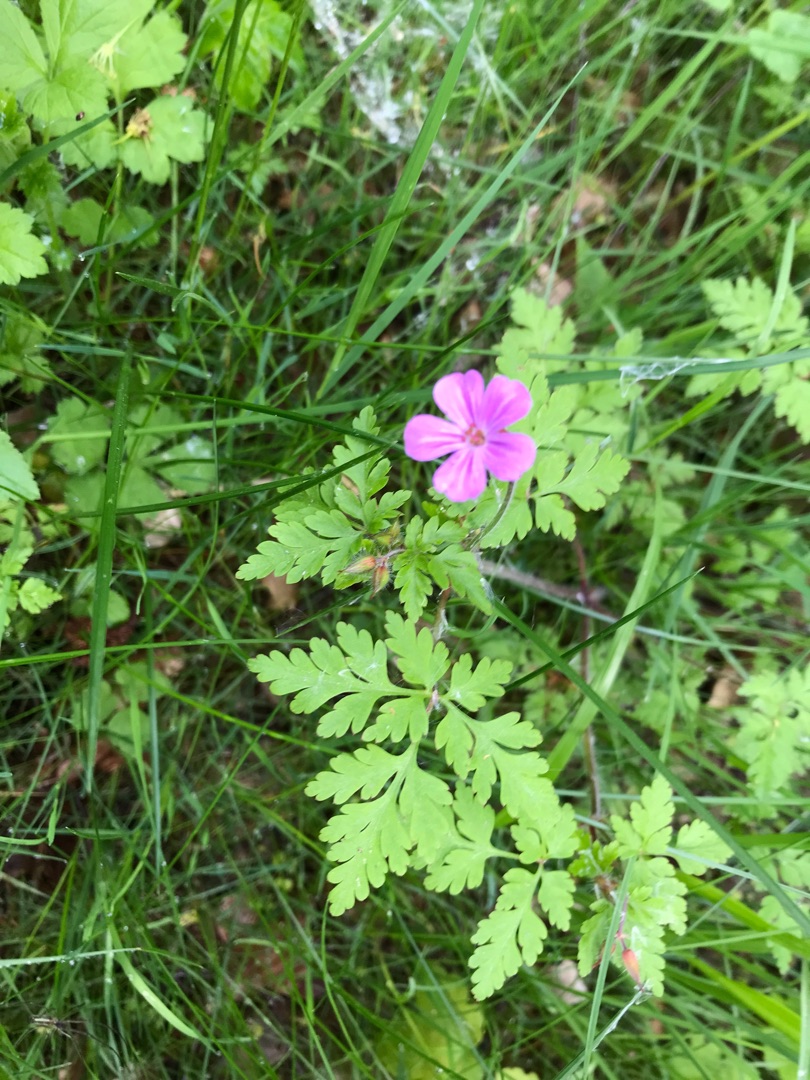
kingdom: Plantae
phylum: Tracheophyta
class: Magnoliopsida
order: Geraniales
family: Geraniaceae
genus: Geranium
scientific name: Geranium robertianum
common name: Stinkende storkenæb
